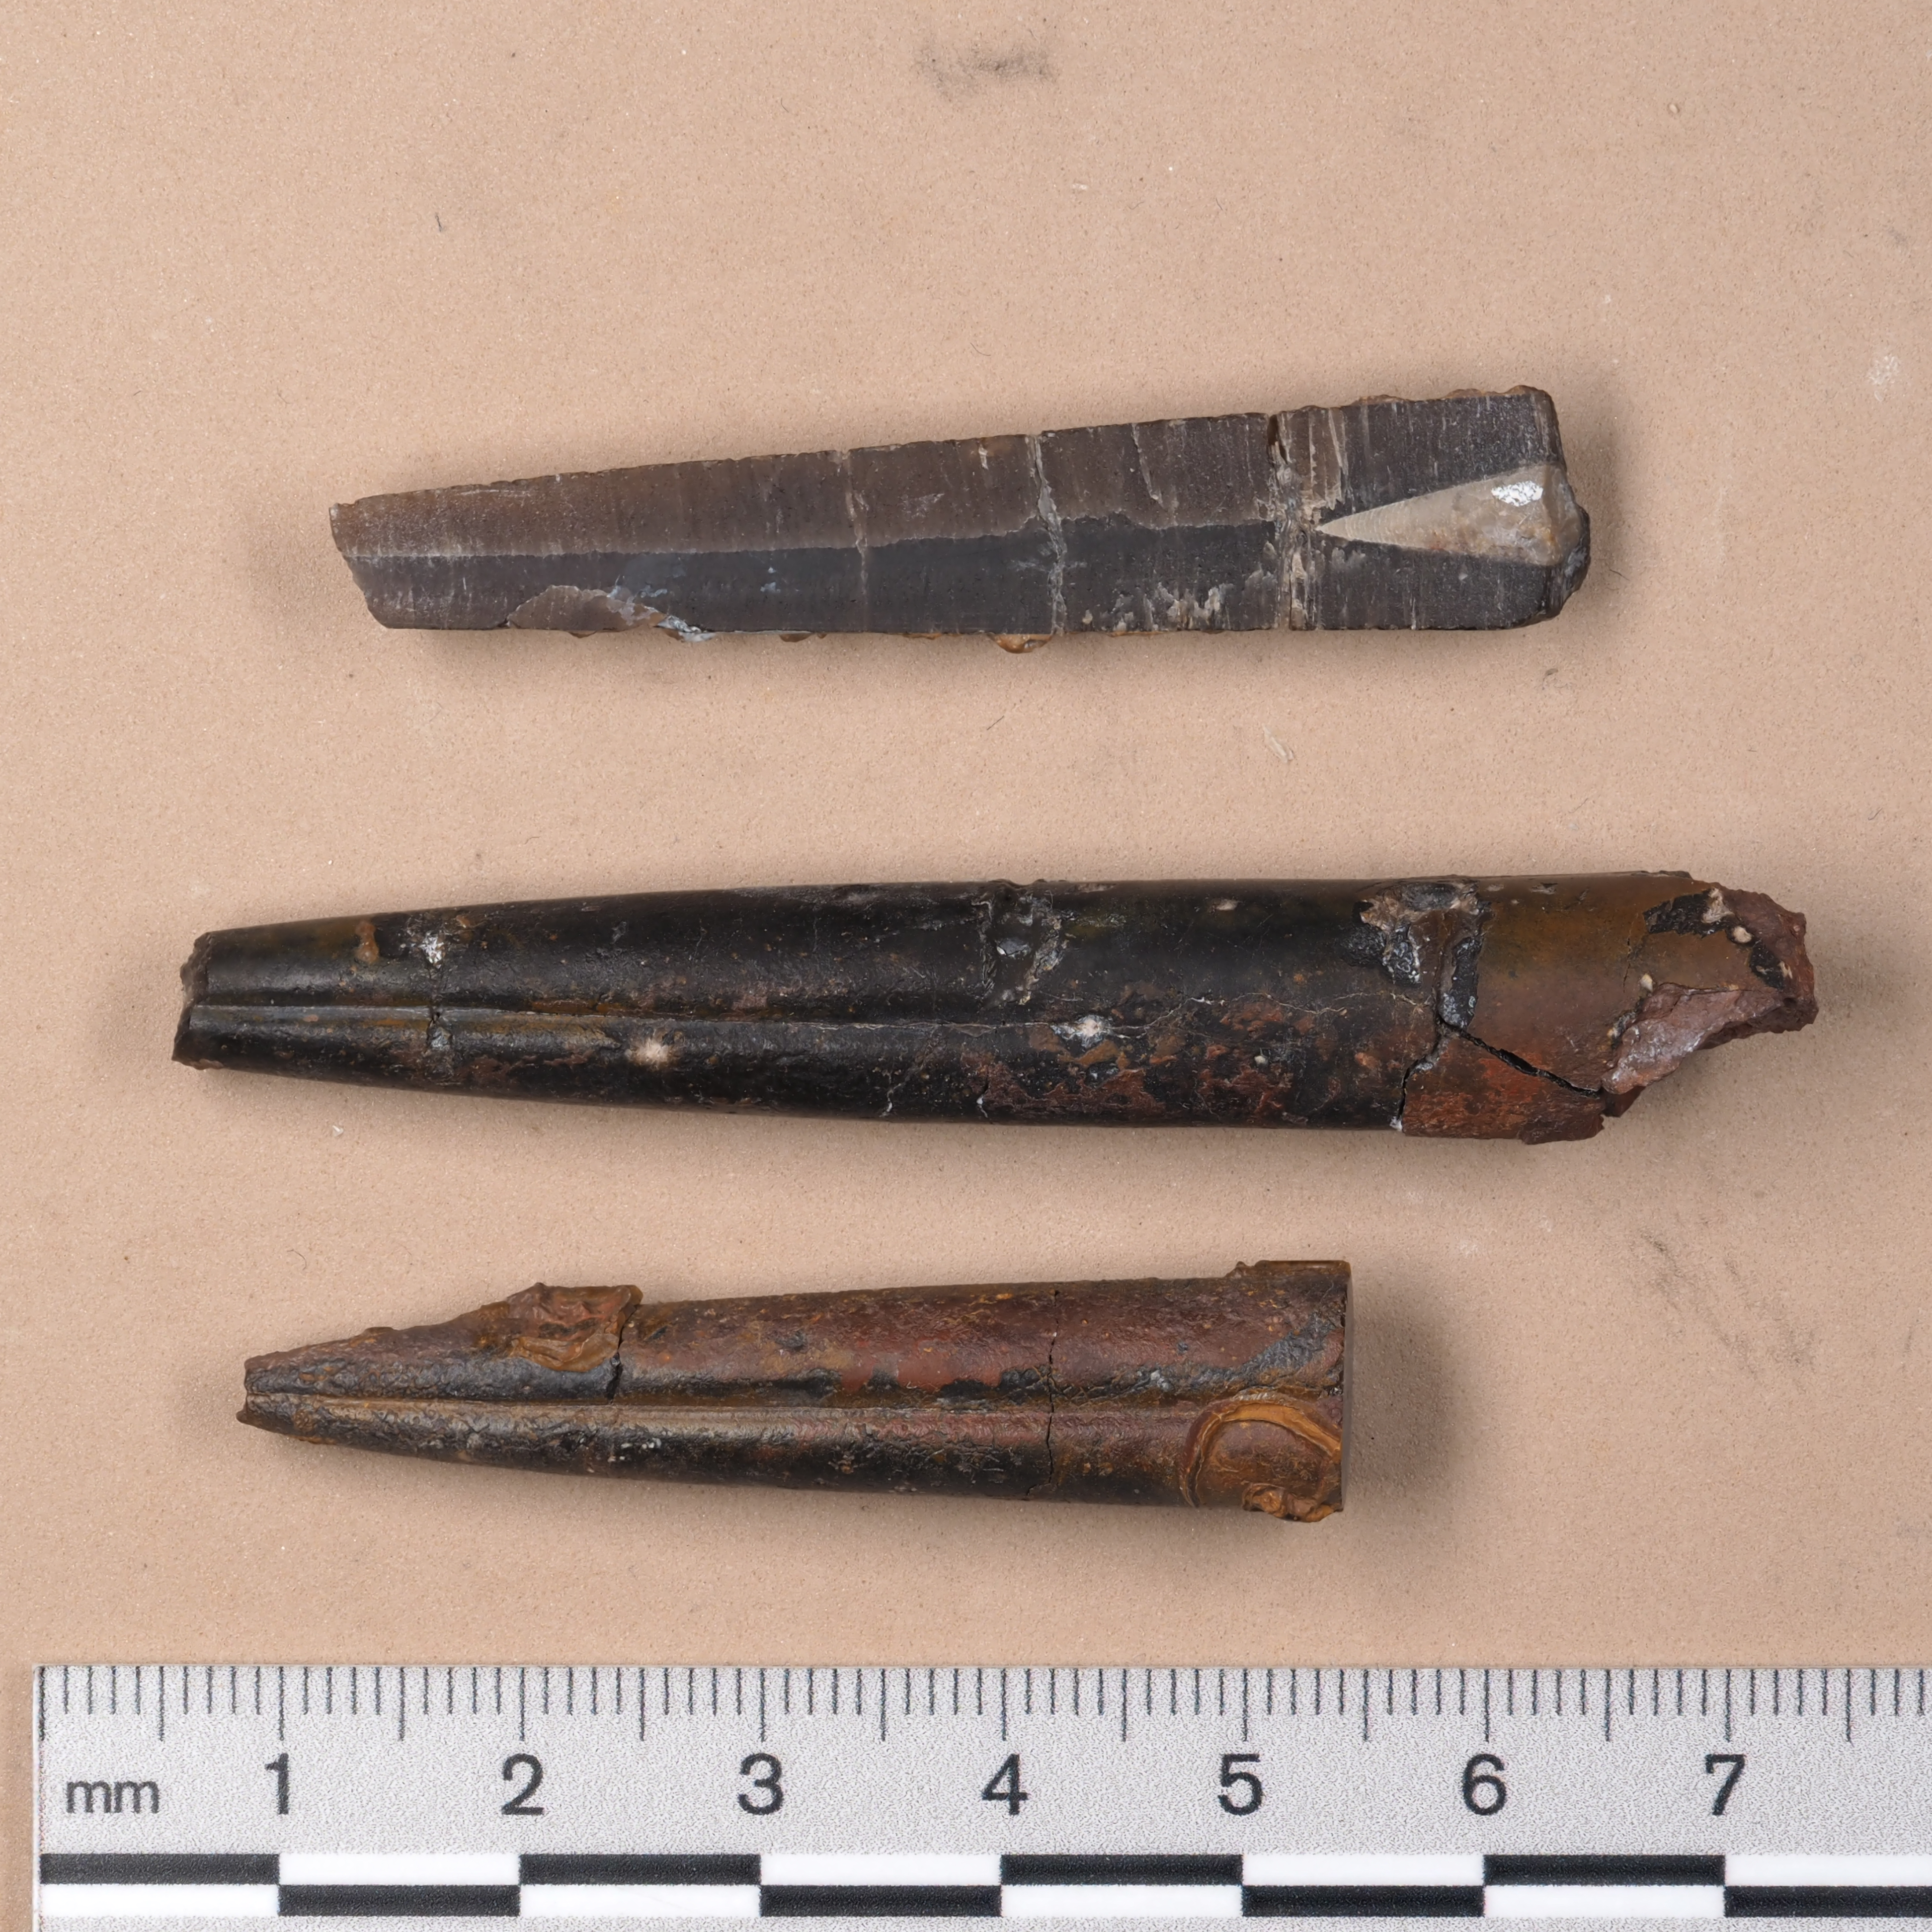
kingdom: Animalia
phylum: Mollusca
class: Cephalopoda
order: Belemnitida
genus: Holcobelus
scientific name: Holcobelus
